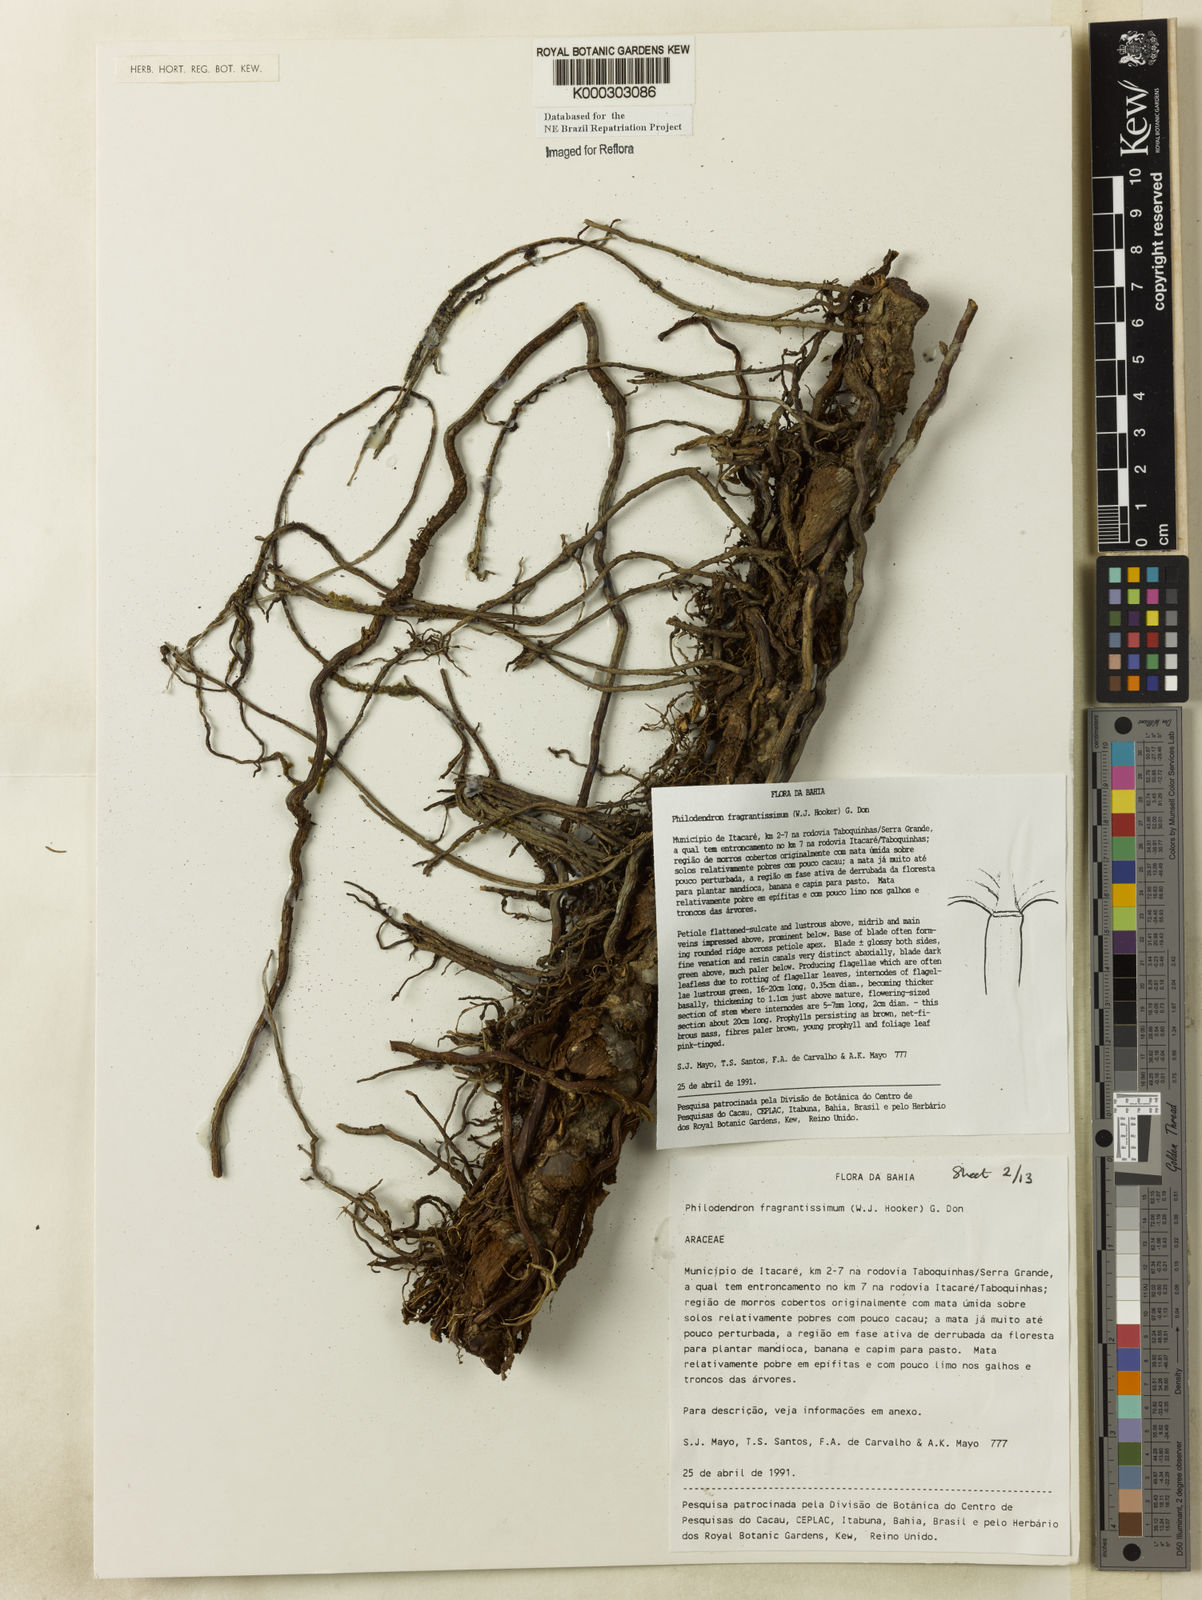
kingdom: Plantae
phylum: Tracheophyta
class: Liliopsida
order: Alismatales
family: Araceae
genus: Philodendron
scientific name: Philodendron fragrantissimum
